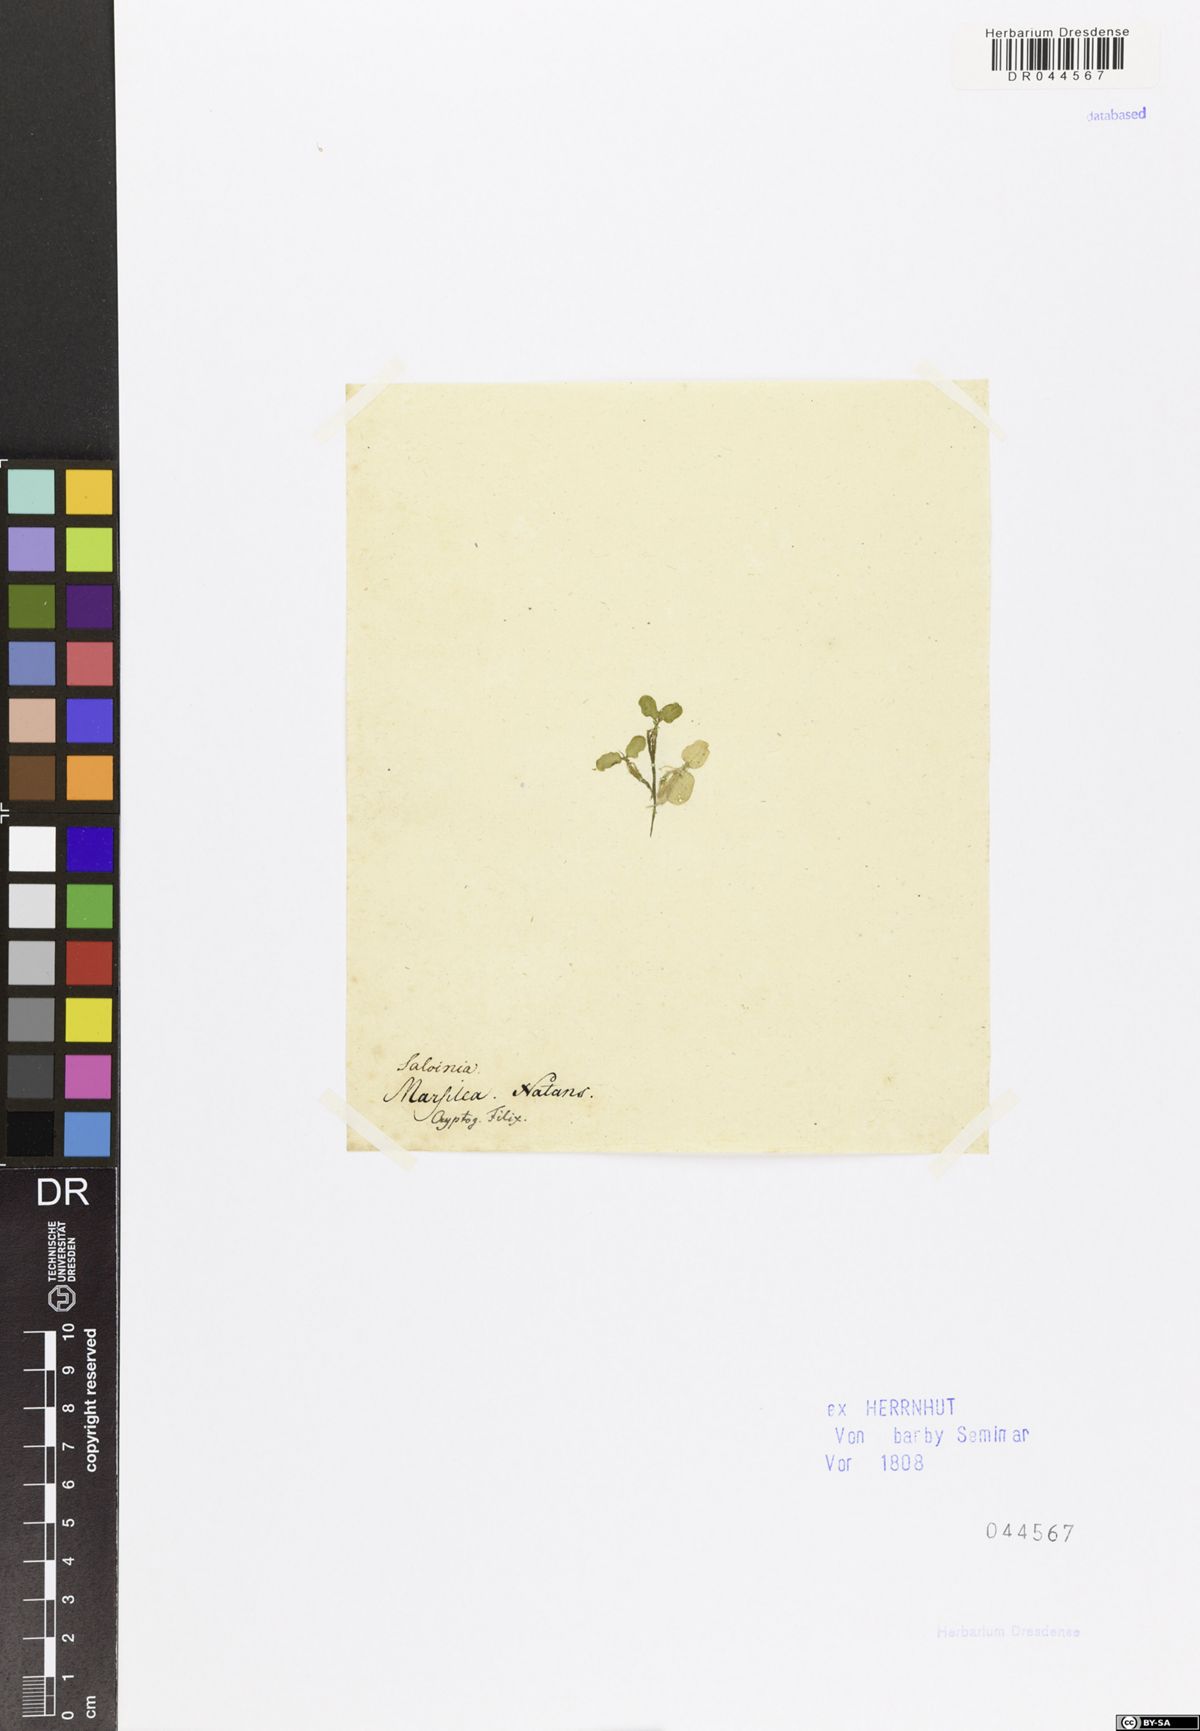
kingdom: Plantae
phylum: Tracheophyta
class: Polypodiopsida
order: Salviniales
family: Salviniaceae
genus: Salvinia
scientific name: Salvinia natans
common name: Floating fern
